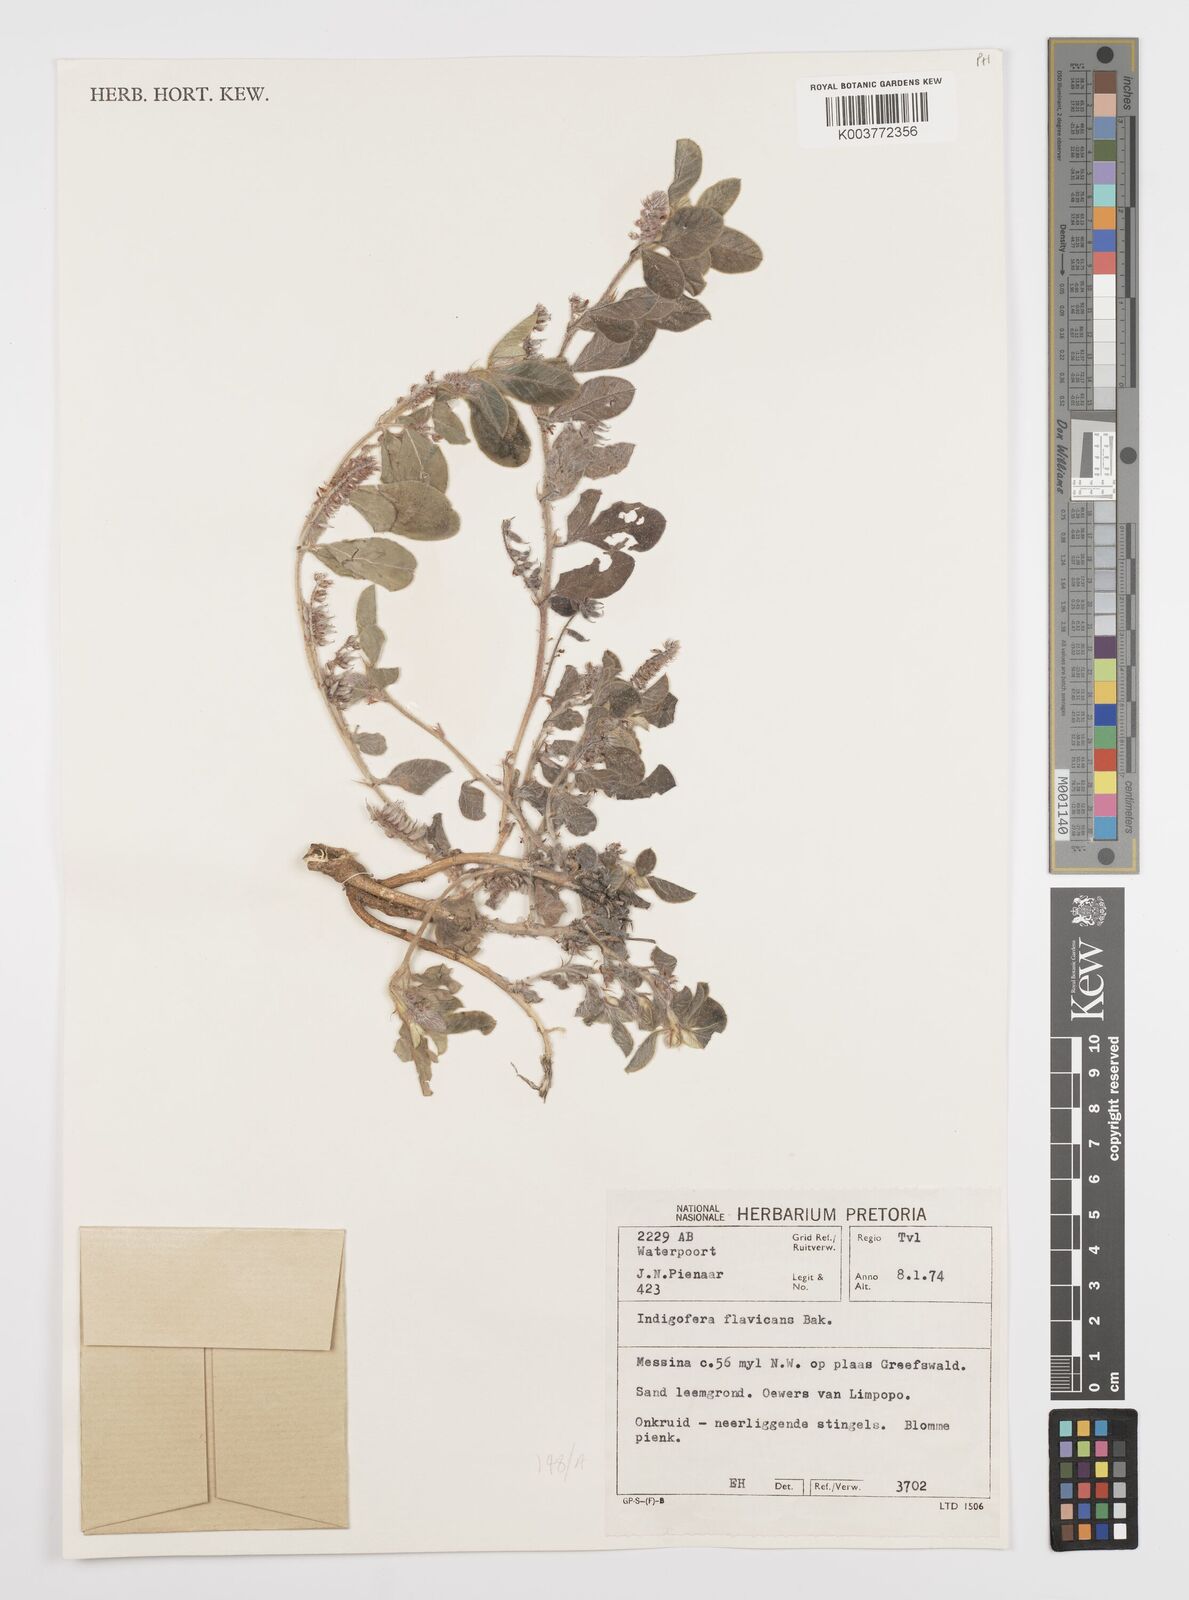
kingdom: Plantae
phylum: Tracheophyta
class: Magnoliopsida
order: Fabales
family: Fabaceae
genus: Indigofera
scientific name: Indigofera flavicans
